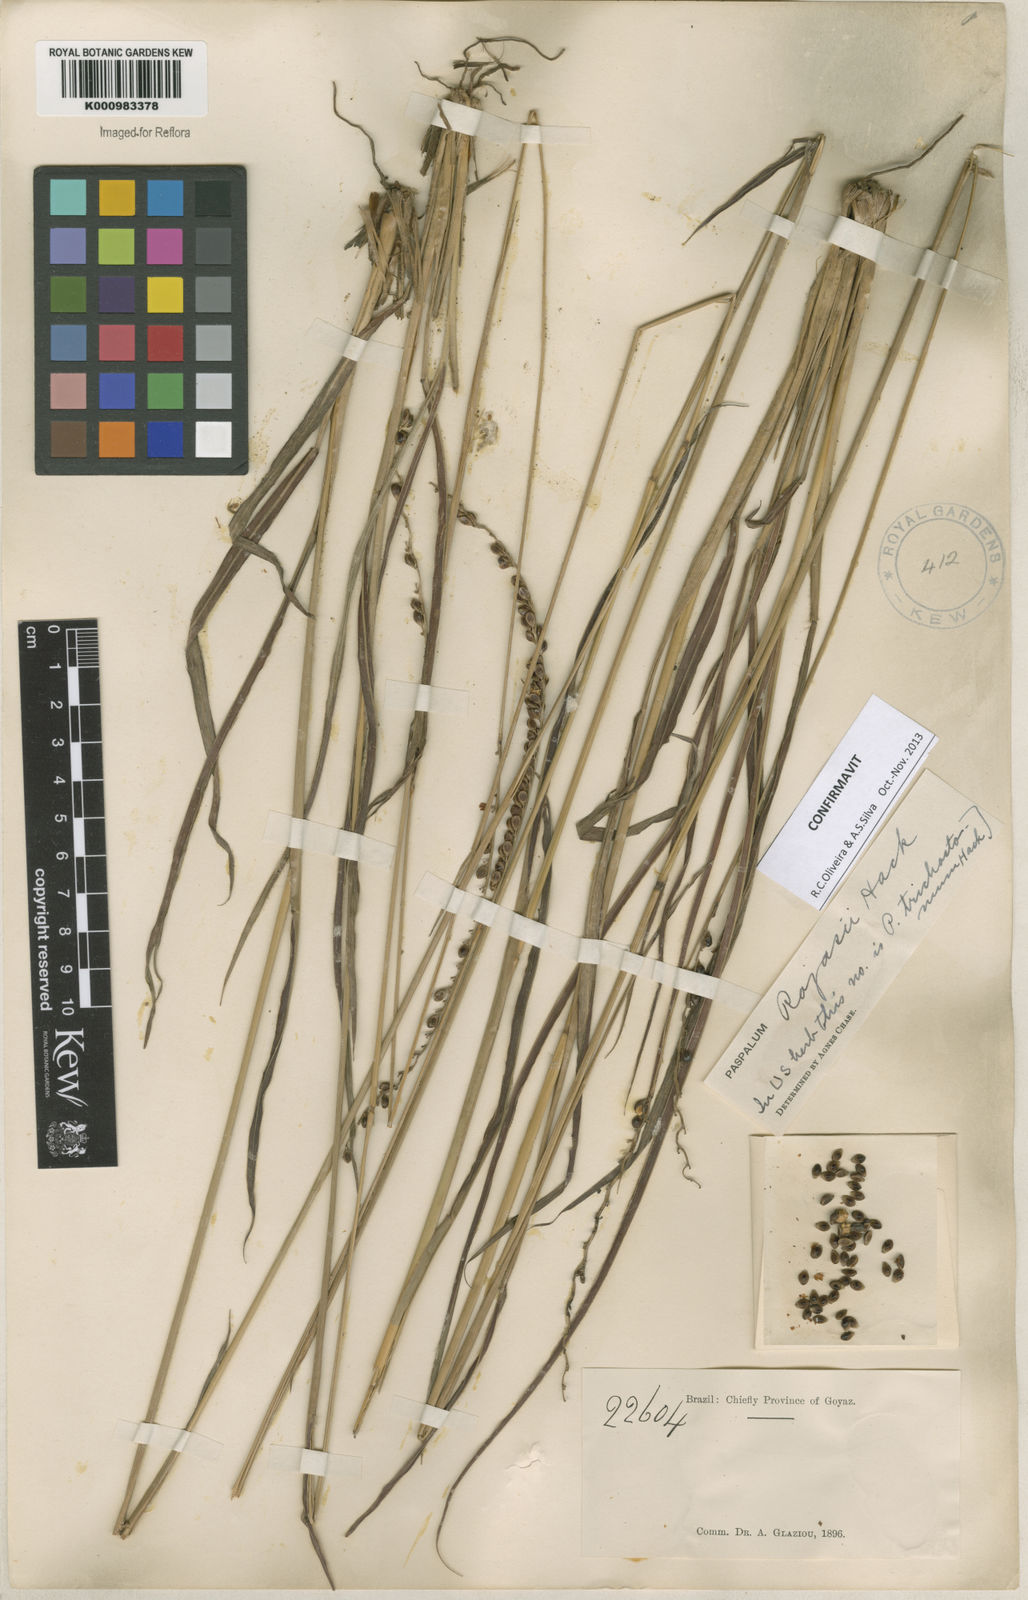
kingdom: Plantae
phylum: Tracheophyta
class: Liliopsida
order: Poales
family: Poaceae
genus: Paspalum
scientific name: Paspalum guenoarum
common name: Wintergreen paspalum
